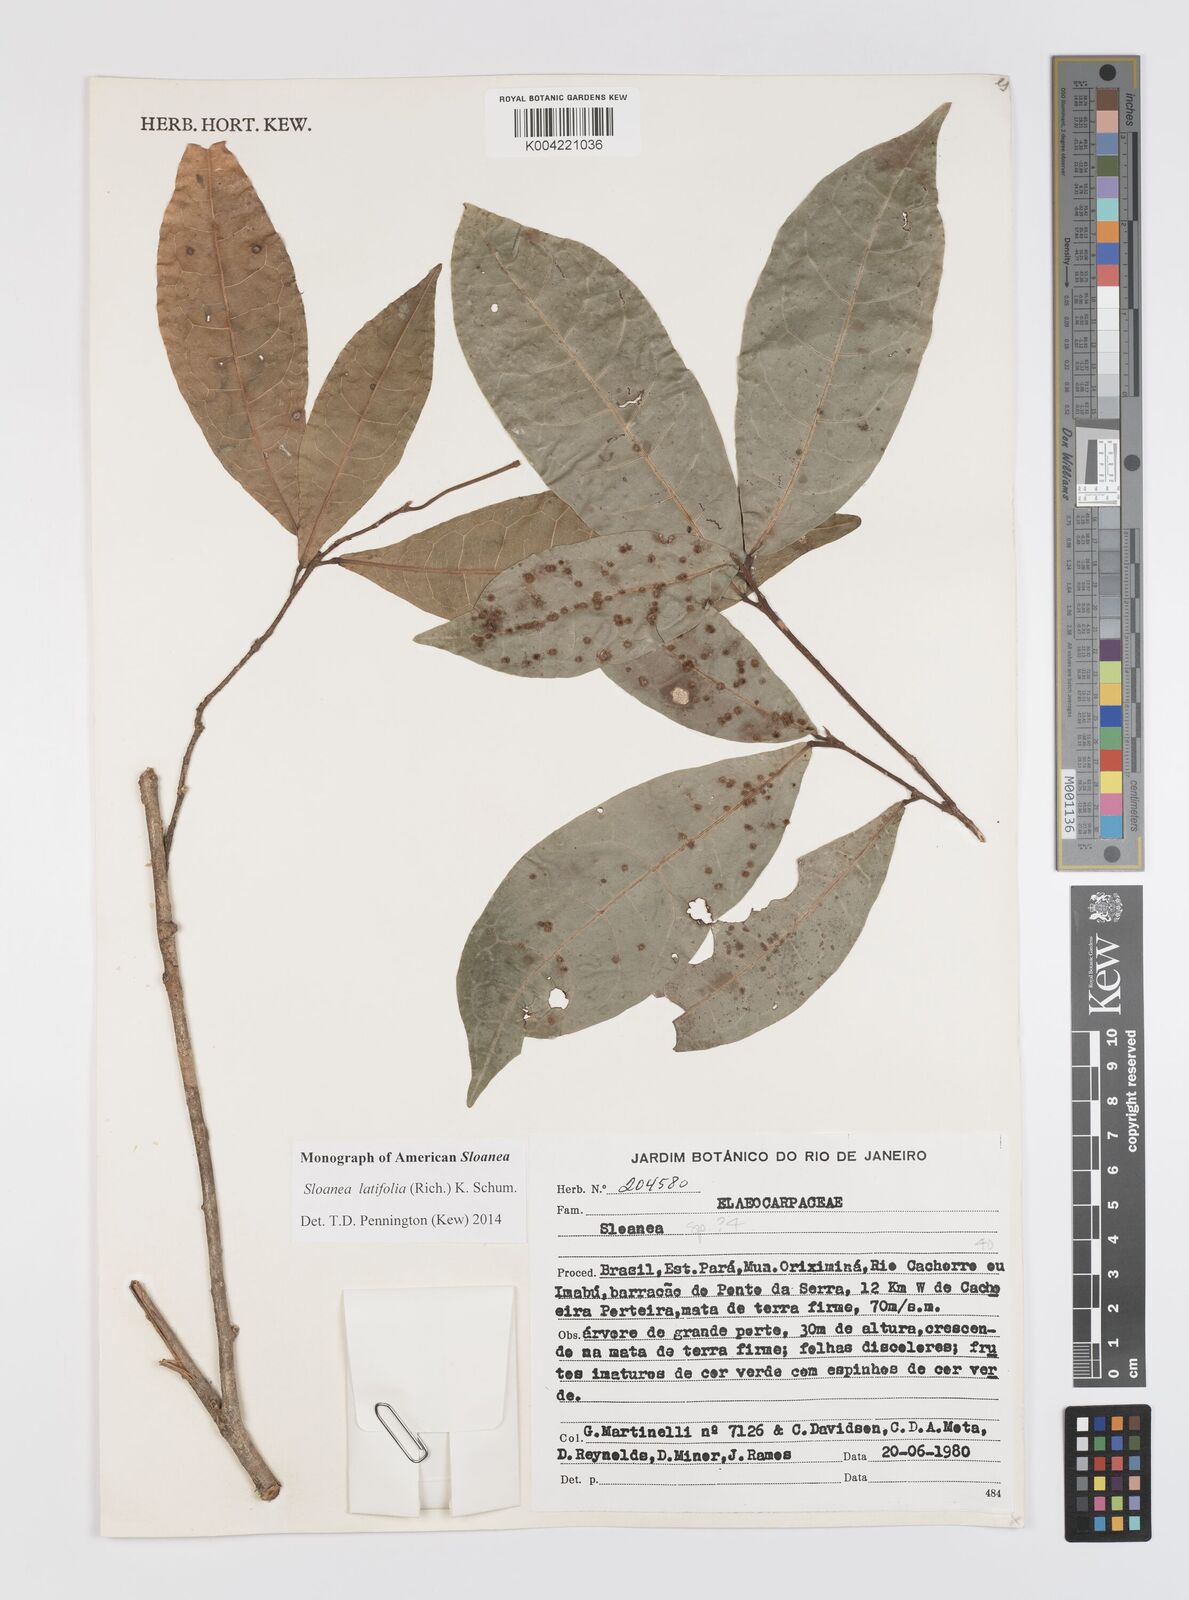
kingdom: Plantae
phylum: Tracheophyta
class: Magnoliopsida
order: Oxalidales
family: Elaeocarpaceae
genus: Sloanea
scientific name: Sloanea latifolia
